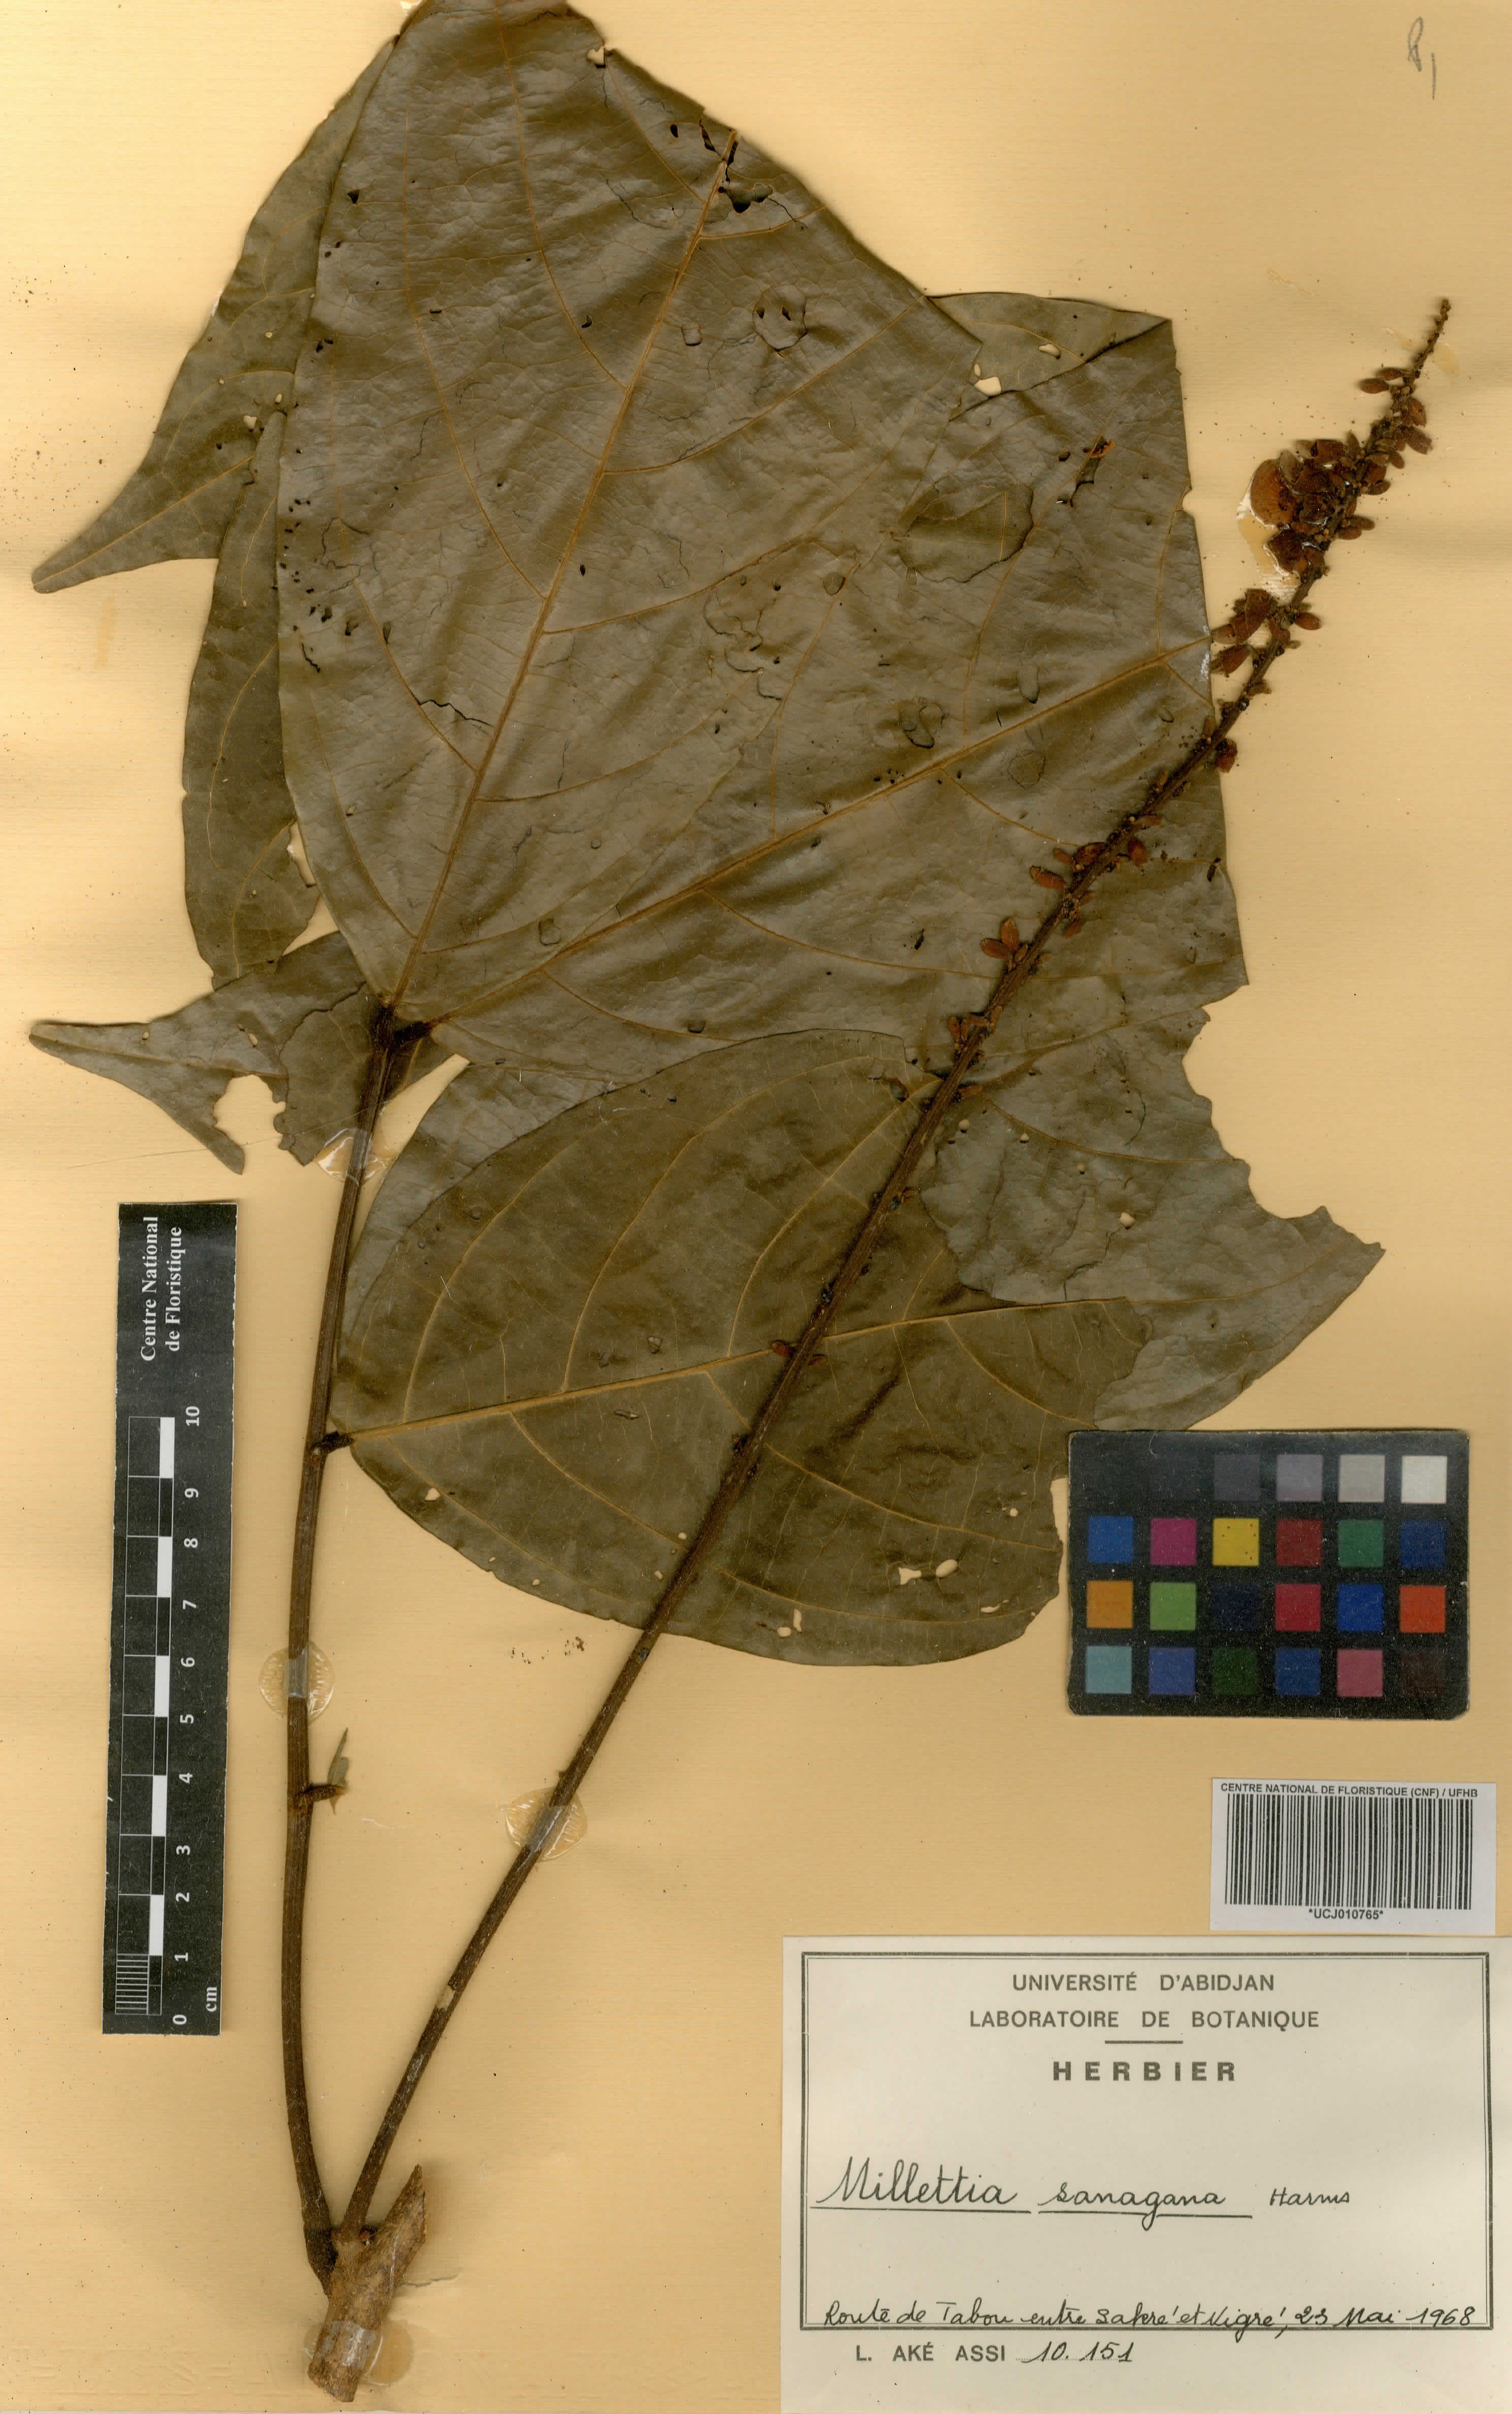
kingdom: Plantae
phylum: Tracheophyta
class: Magnoliopsida
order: Fabales
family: Fabaceae
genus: Millettia
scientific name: Millettia sanagana
